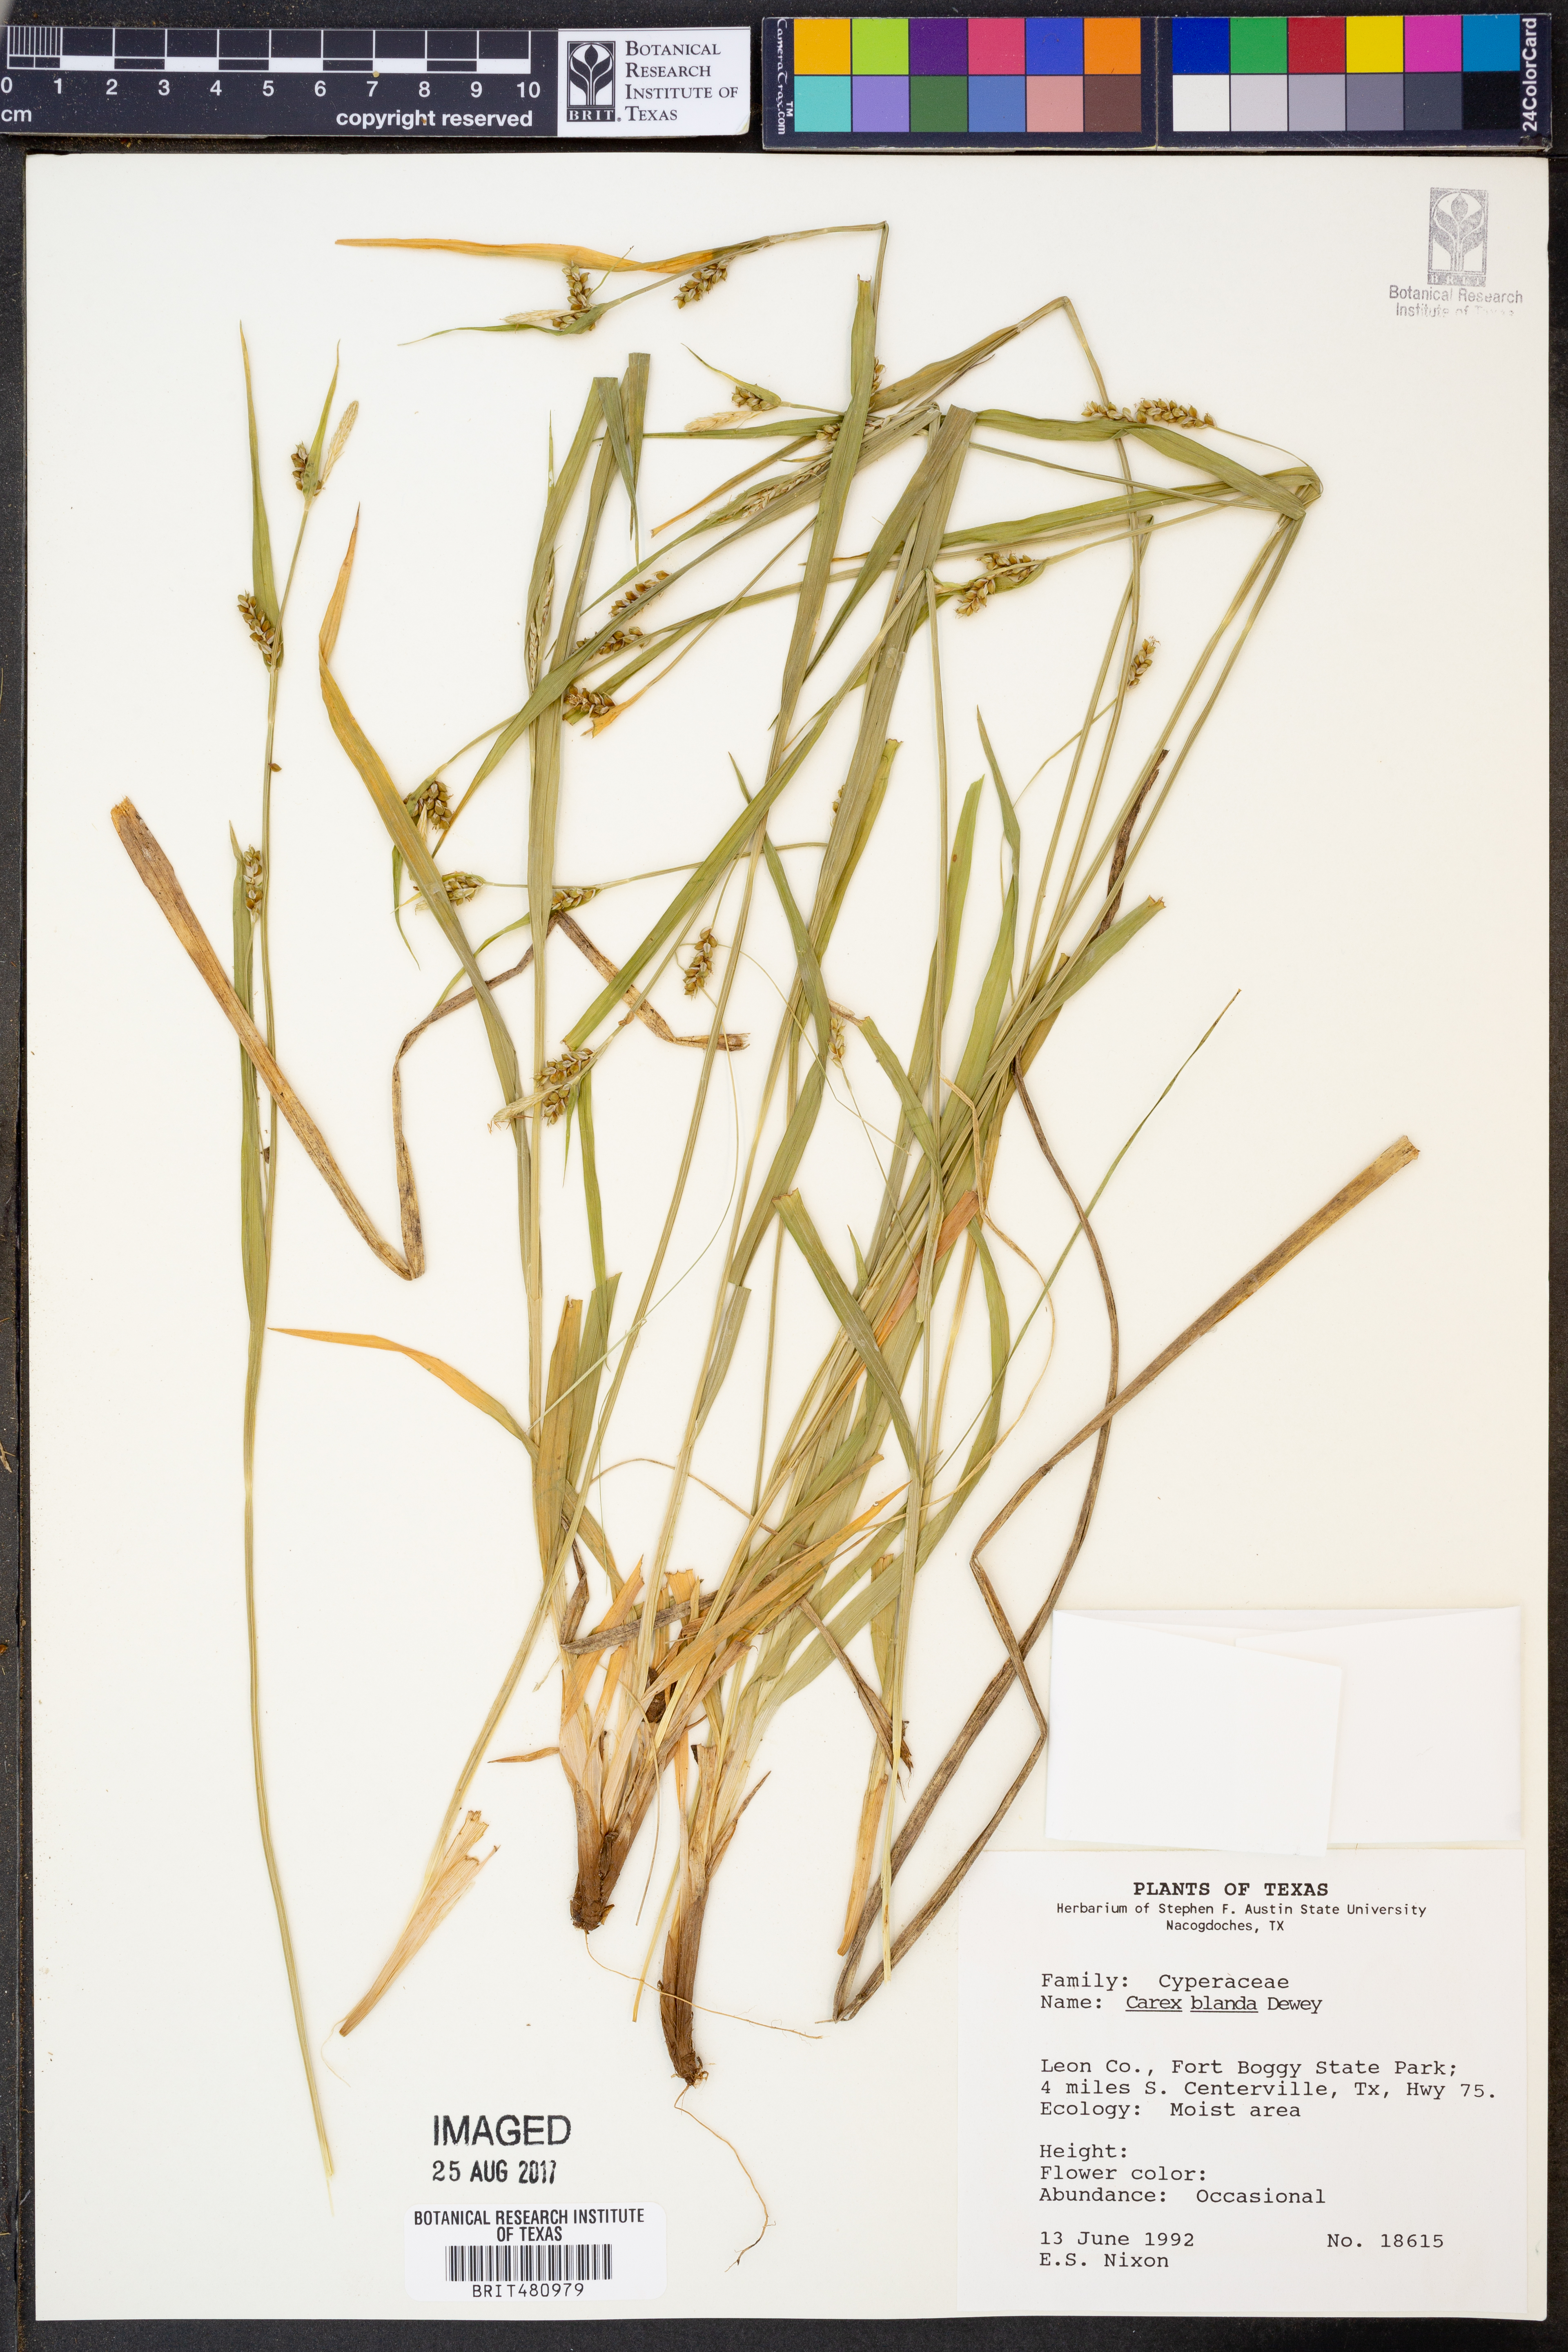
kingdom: Plantae
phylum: Tracheophyta
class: Liliopsida
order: Poales
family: Cyperaceae
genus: Carex
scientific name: Carex blanda
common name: Bland sedge
